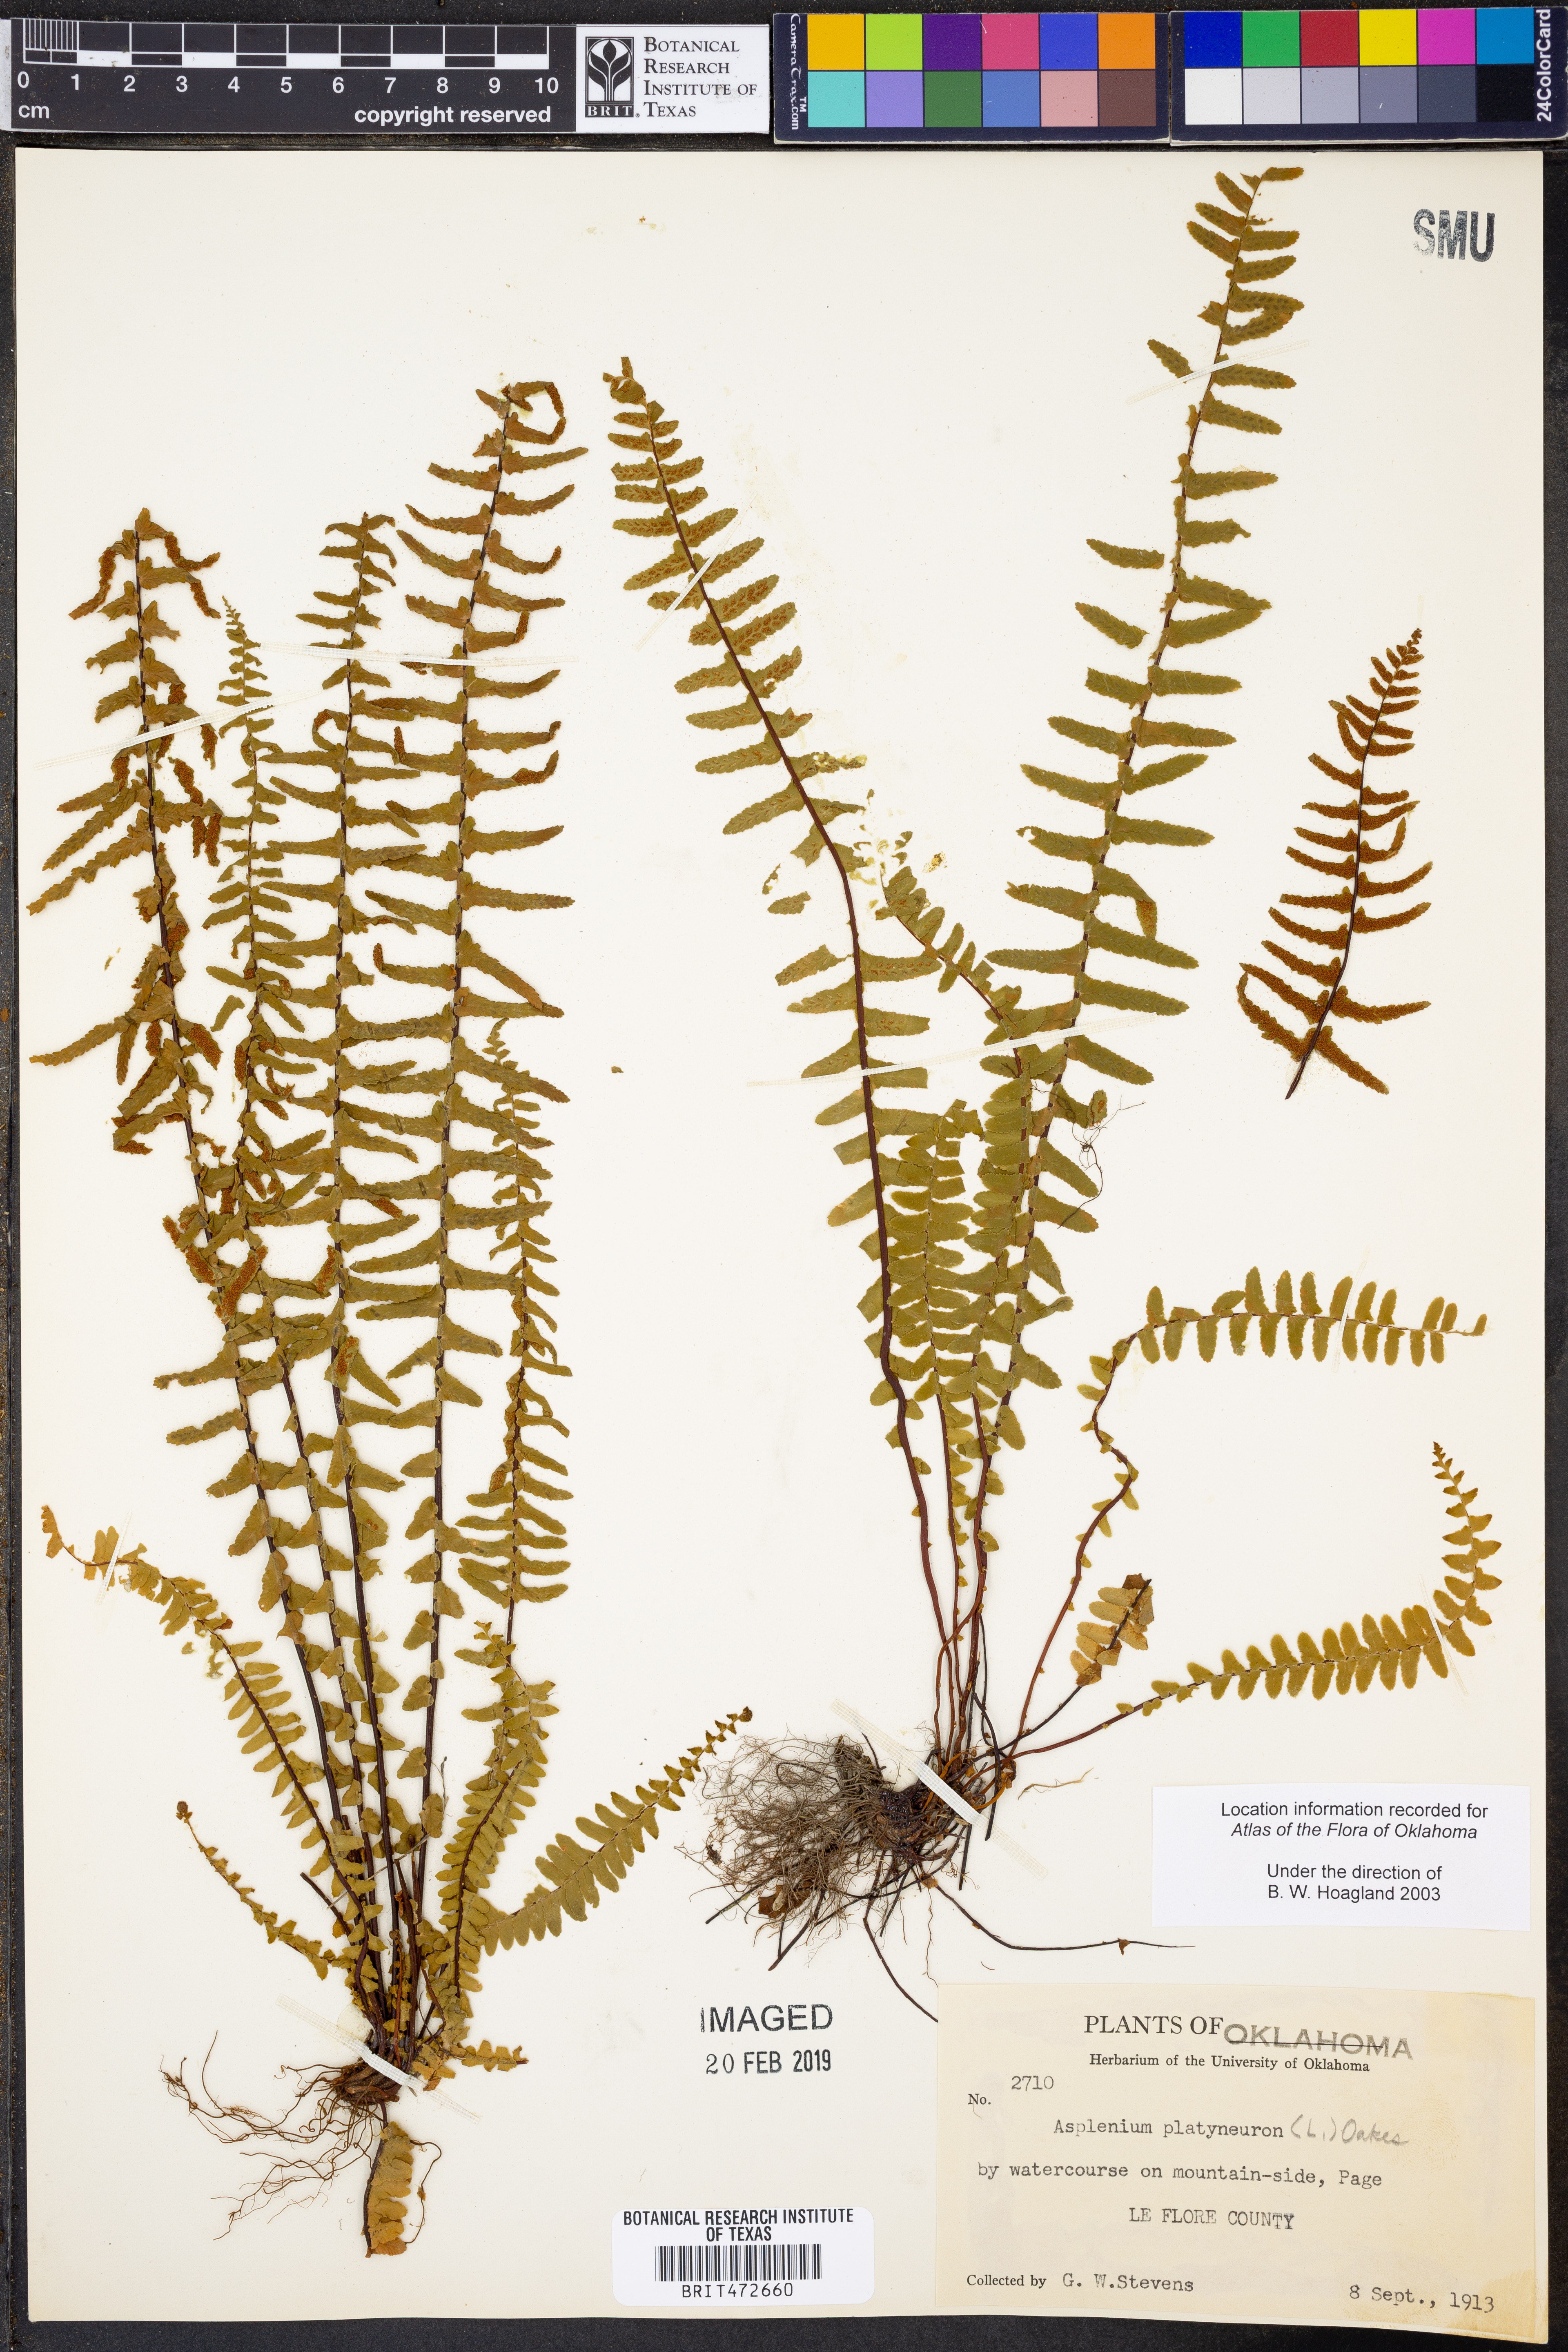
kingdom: Plantae
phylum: Tracheophyta
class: Polypodiopsida
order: Polypodiales
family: Aspleniaceae
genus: Asplenium
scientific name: Asplenium platyneuron
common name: Ebony spleenwort
